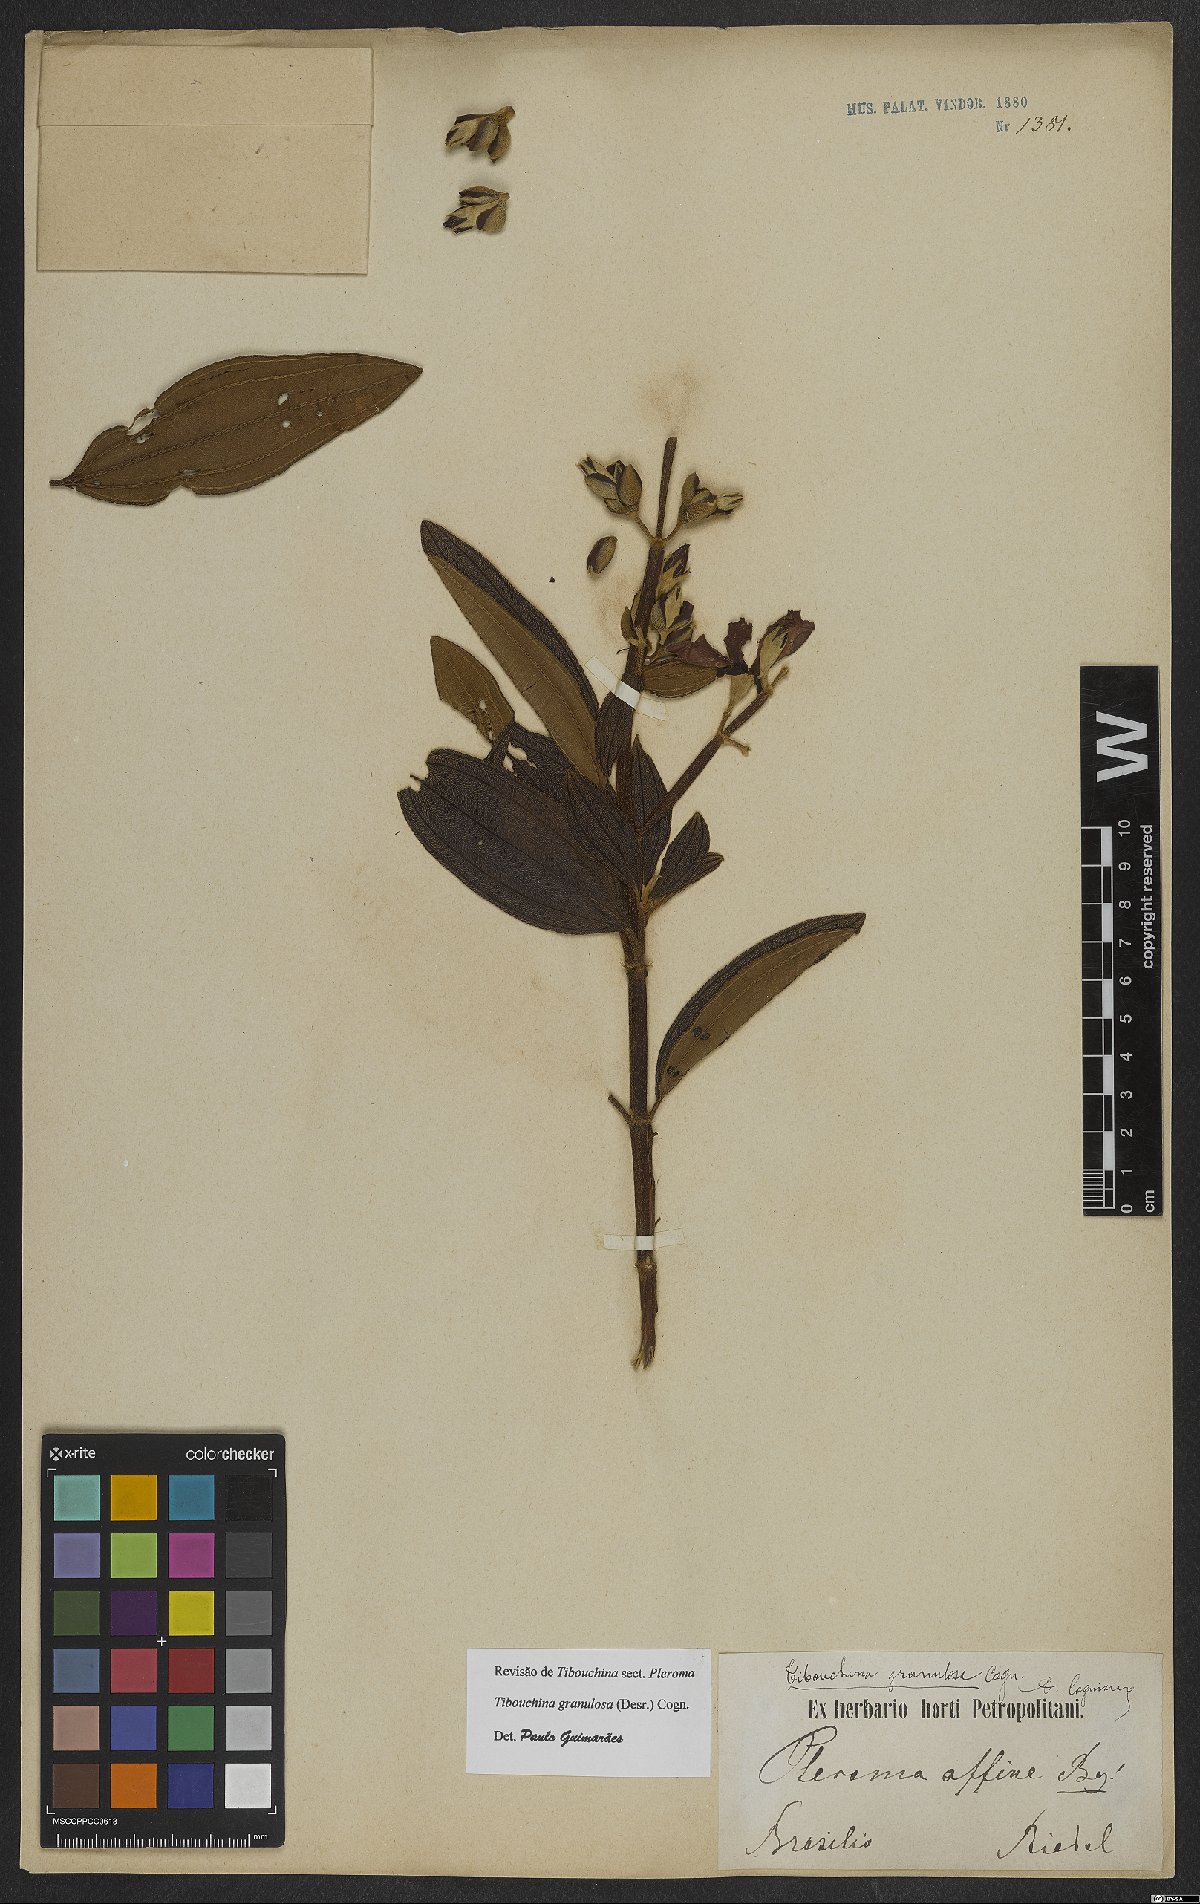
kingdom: Plantae
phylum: Tracheophyta
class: Magnoliopsida
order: Myrtales
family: Melastomataceae
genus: Pleroma
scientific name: Pleroma granulosum
